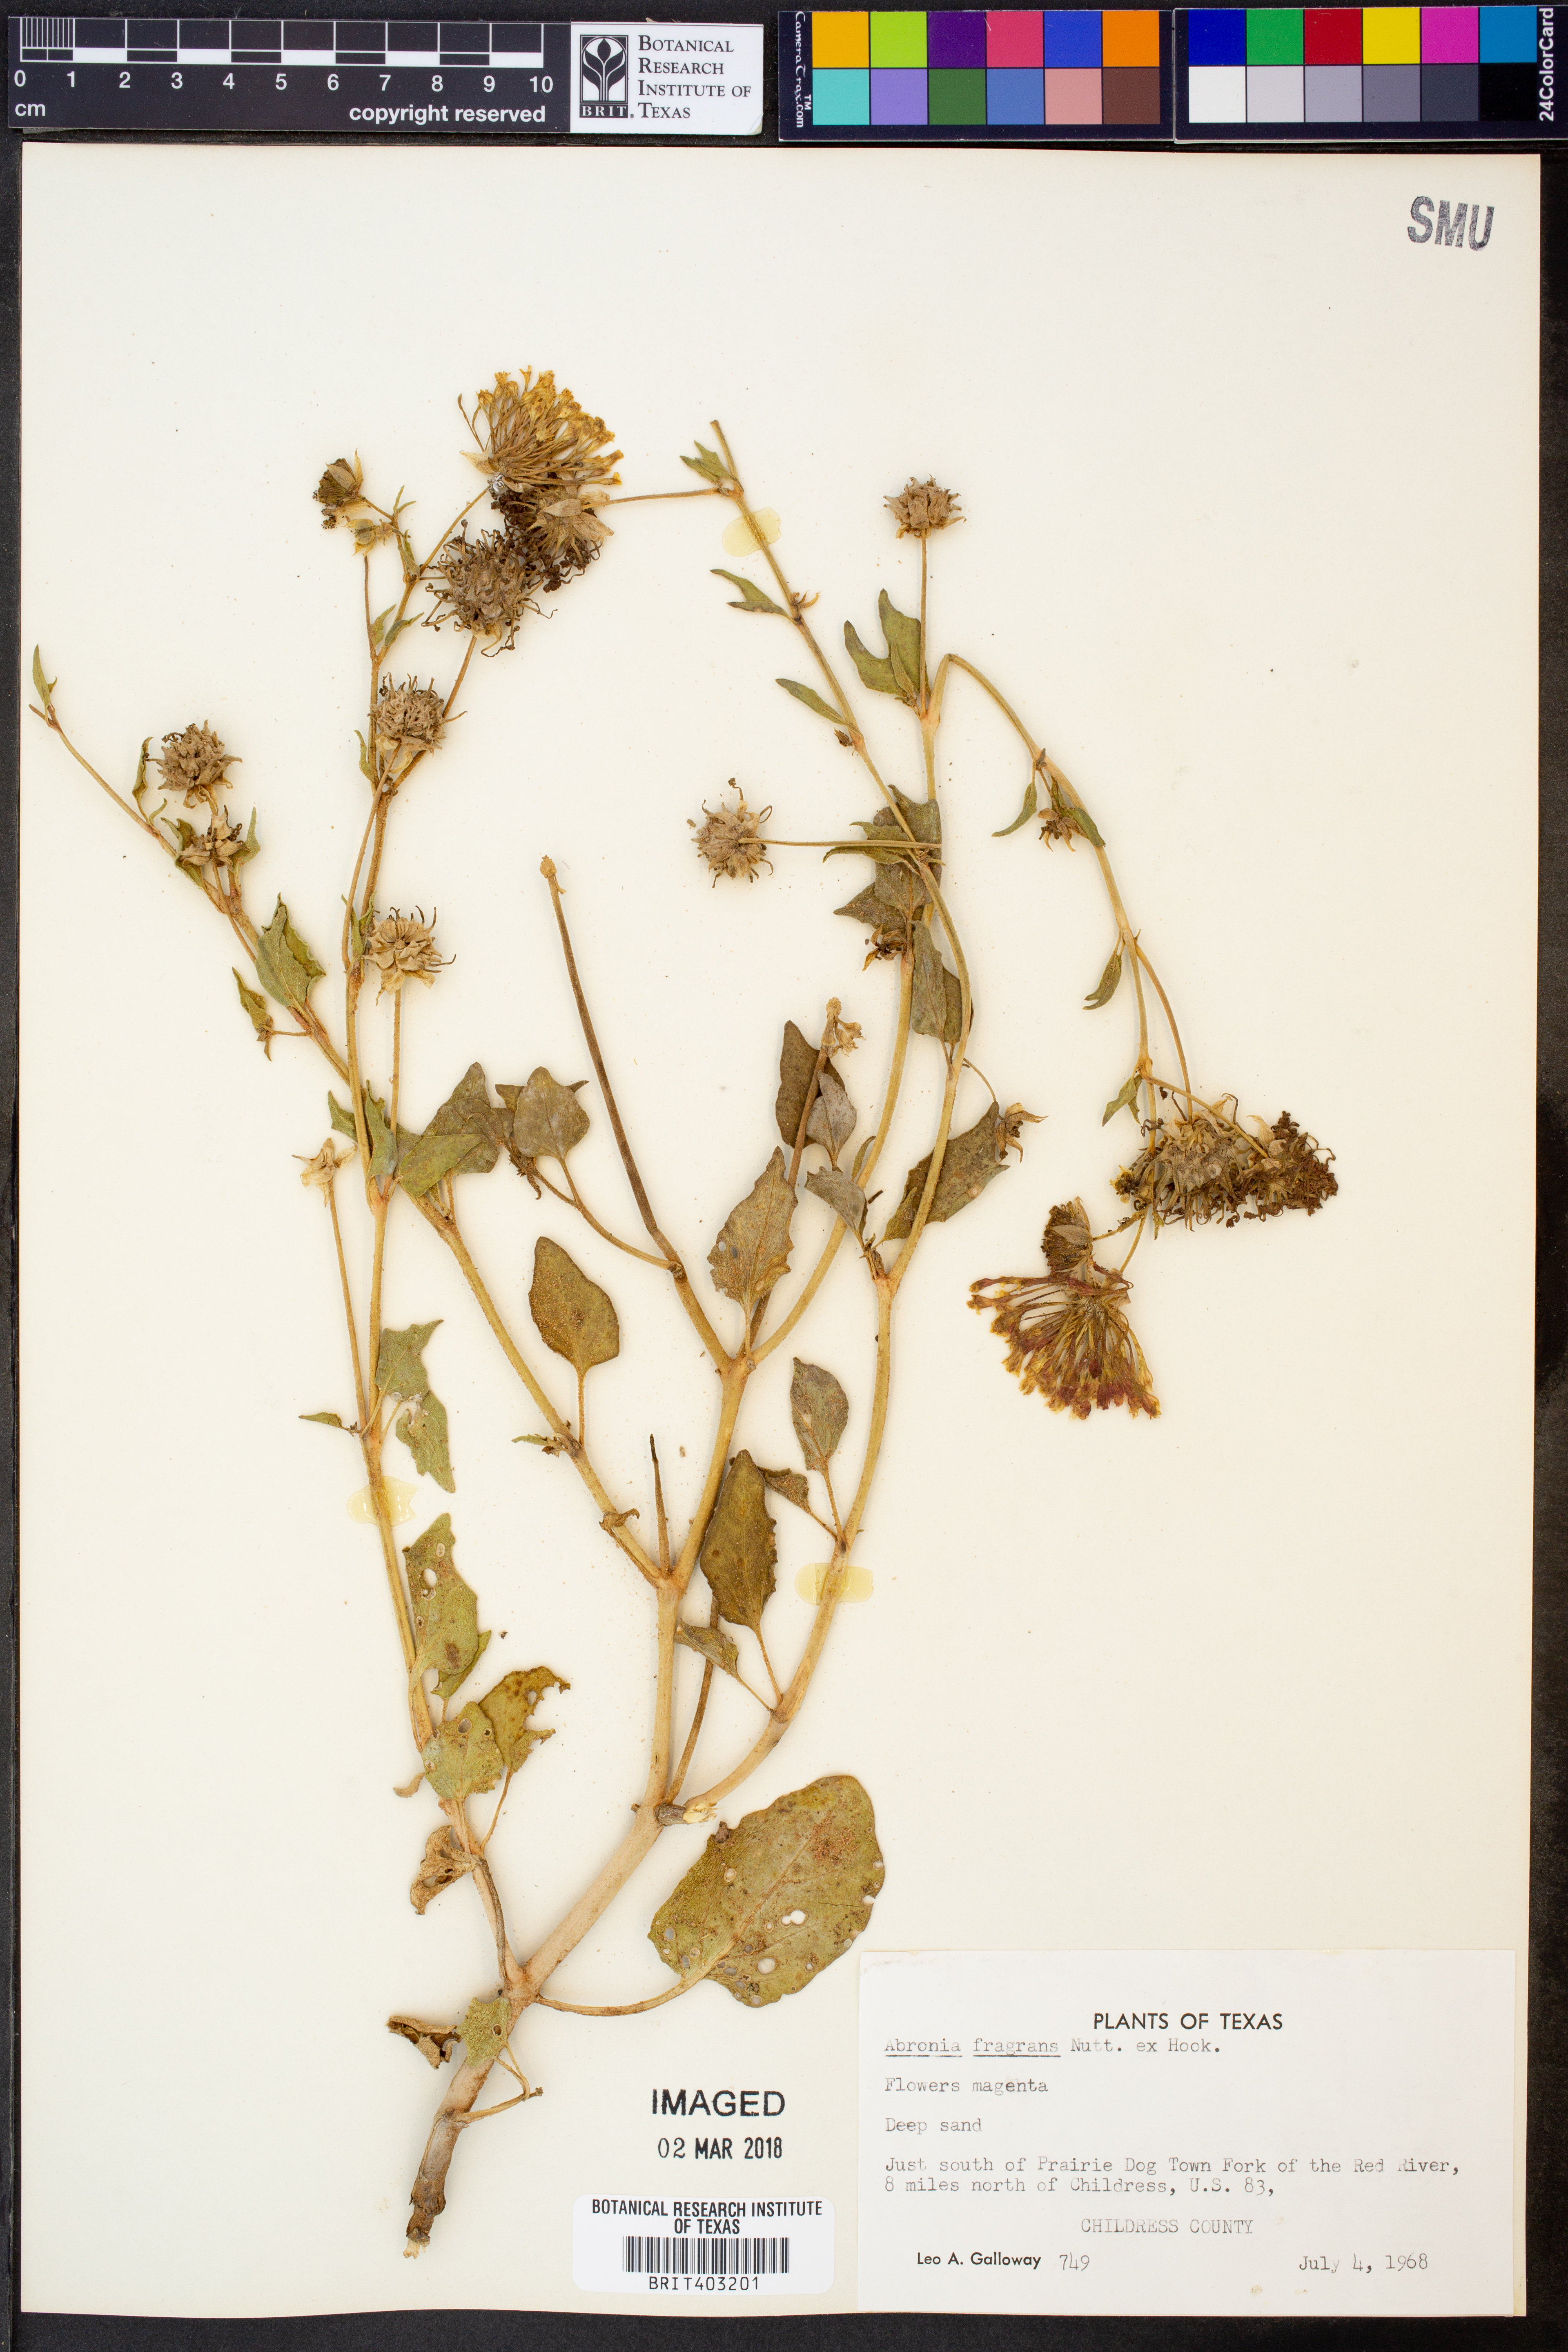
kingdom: Plantae
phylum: Tracheophyta
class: Magnoliopsida
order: Caryophyllales
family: Nyctaginaceae
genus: Abronia
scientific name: Abronia fragrans
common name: Fragrant sand-verbena
